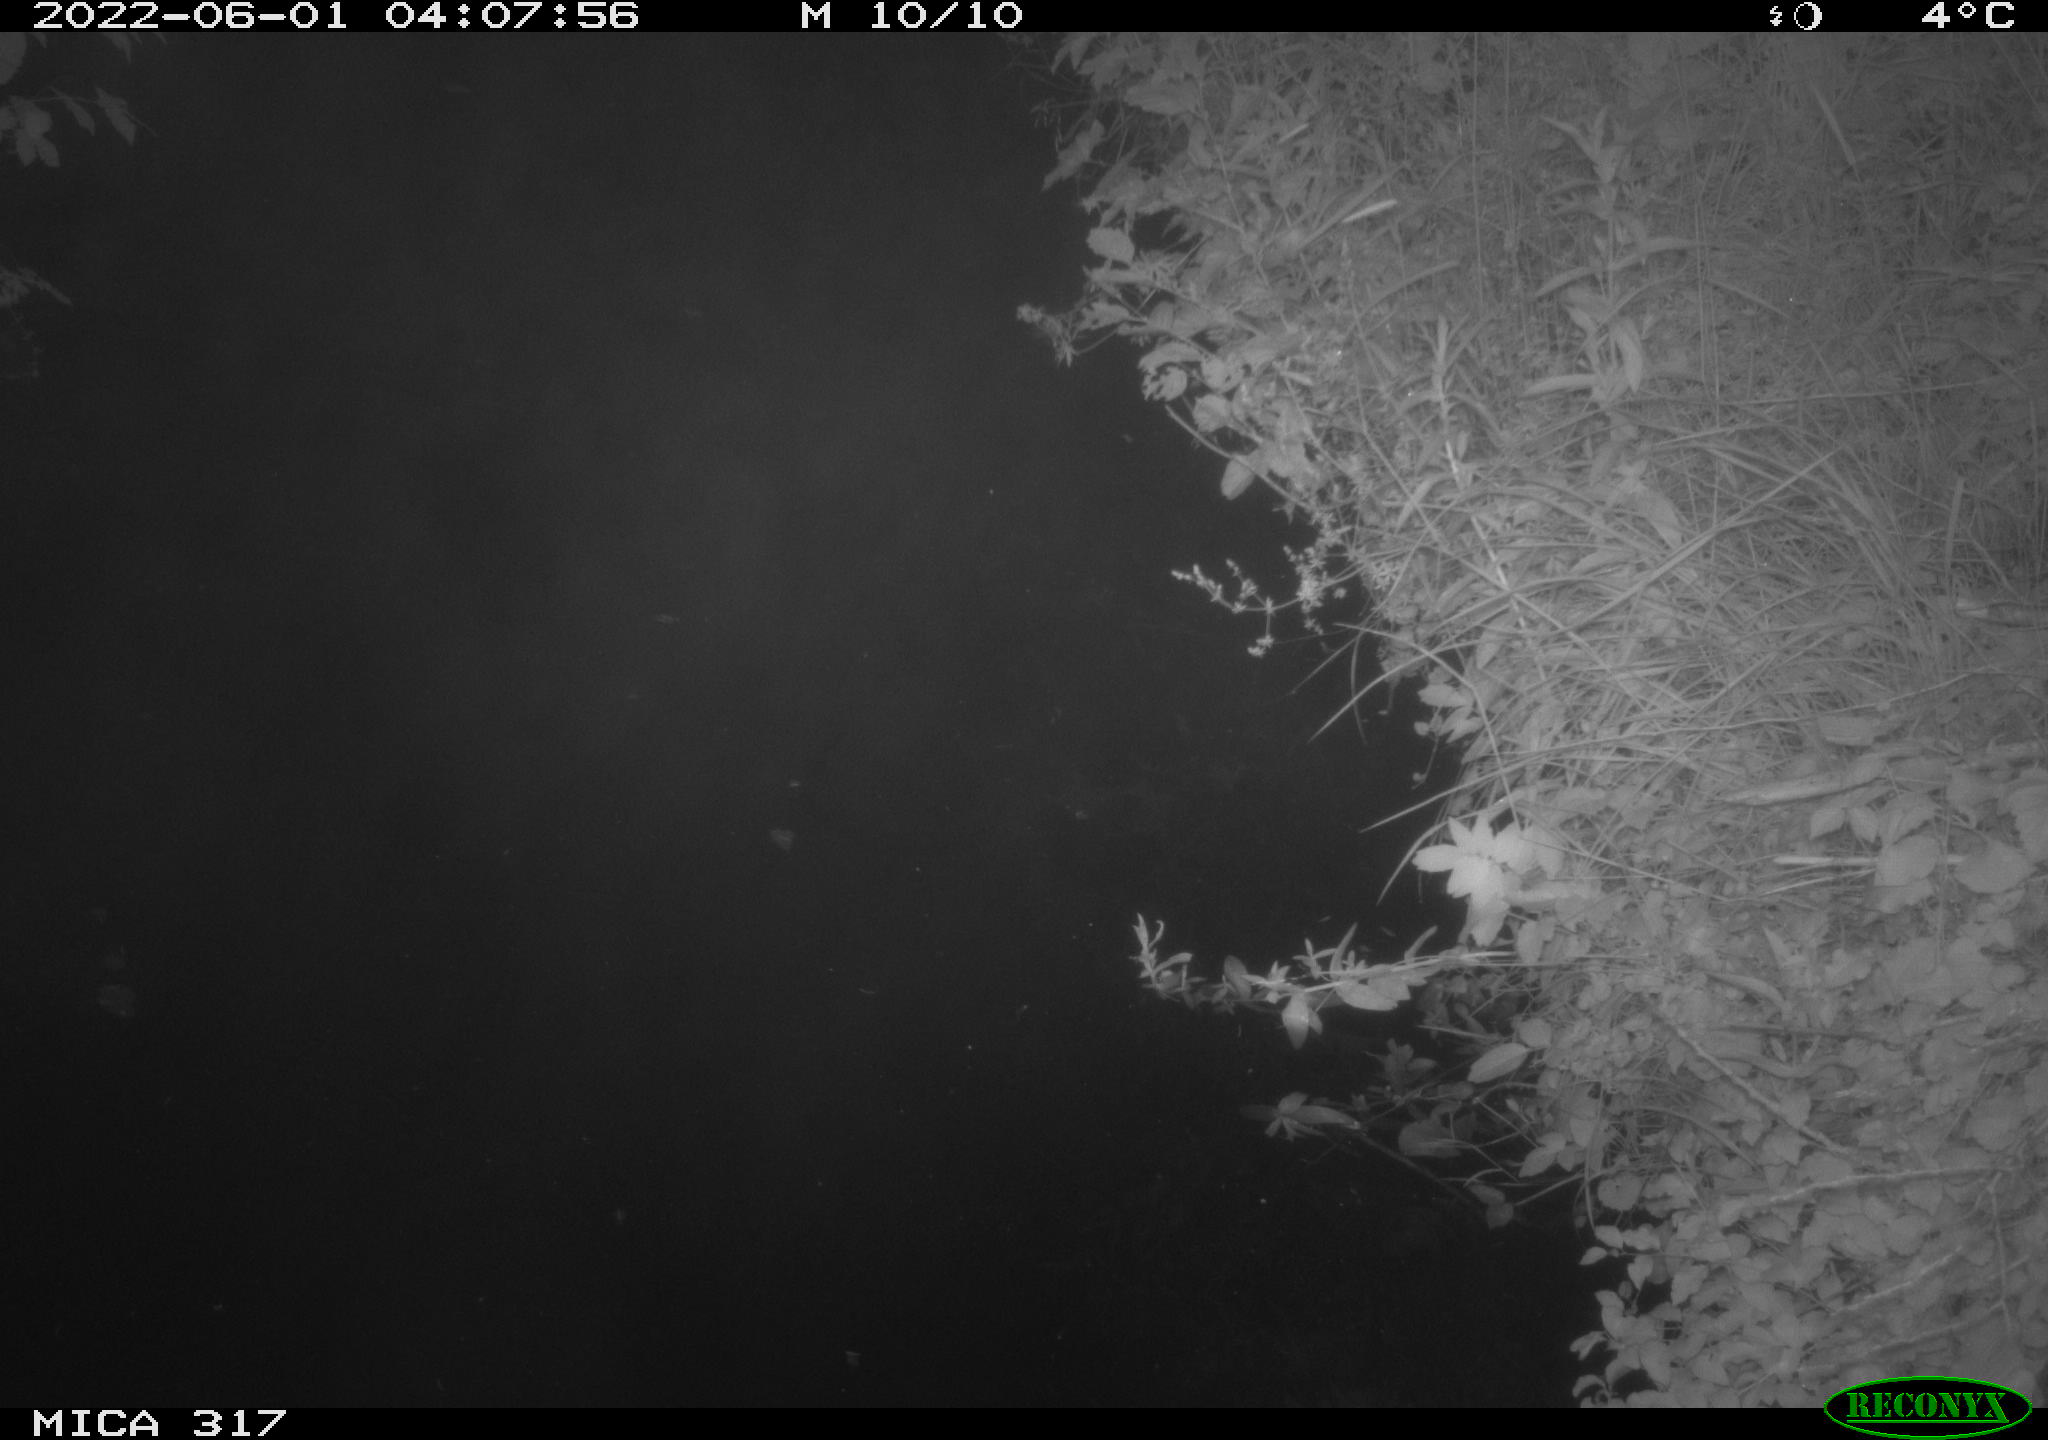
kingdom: Animalia
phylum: Chordata
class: Aves
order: Gruiformes
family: Rallidae
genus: Gallinula
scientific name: Gallinula chloropus
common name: Common moorhen
